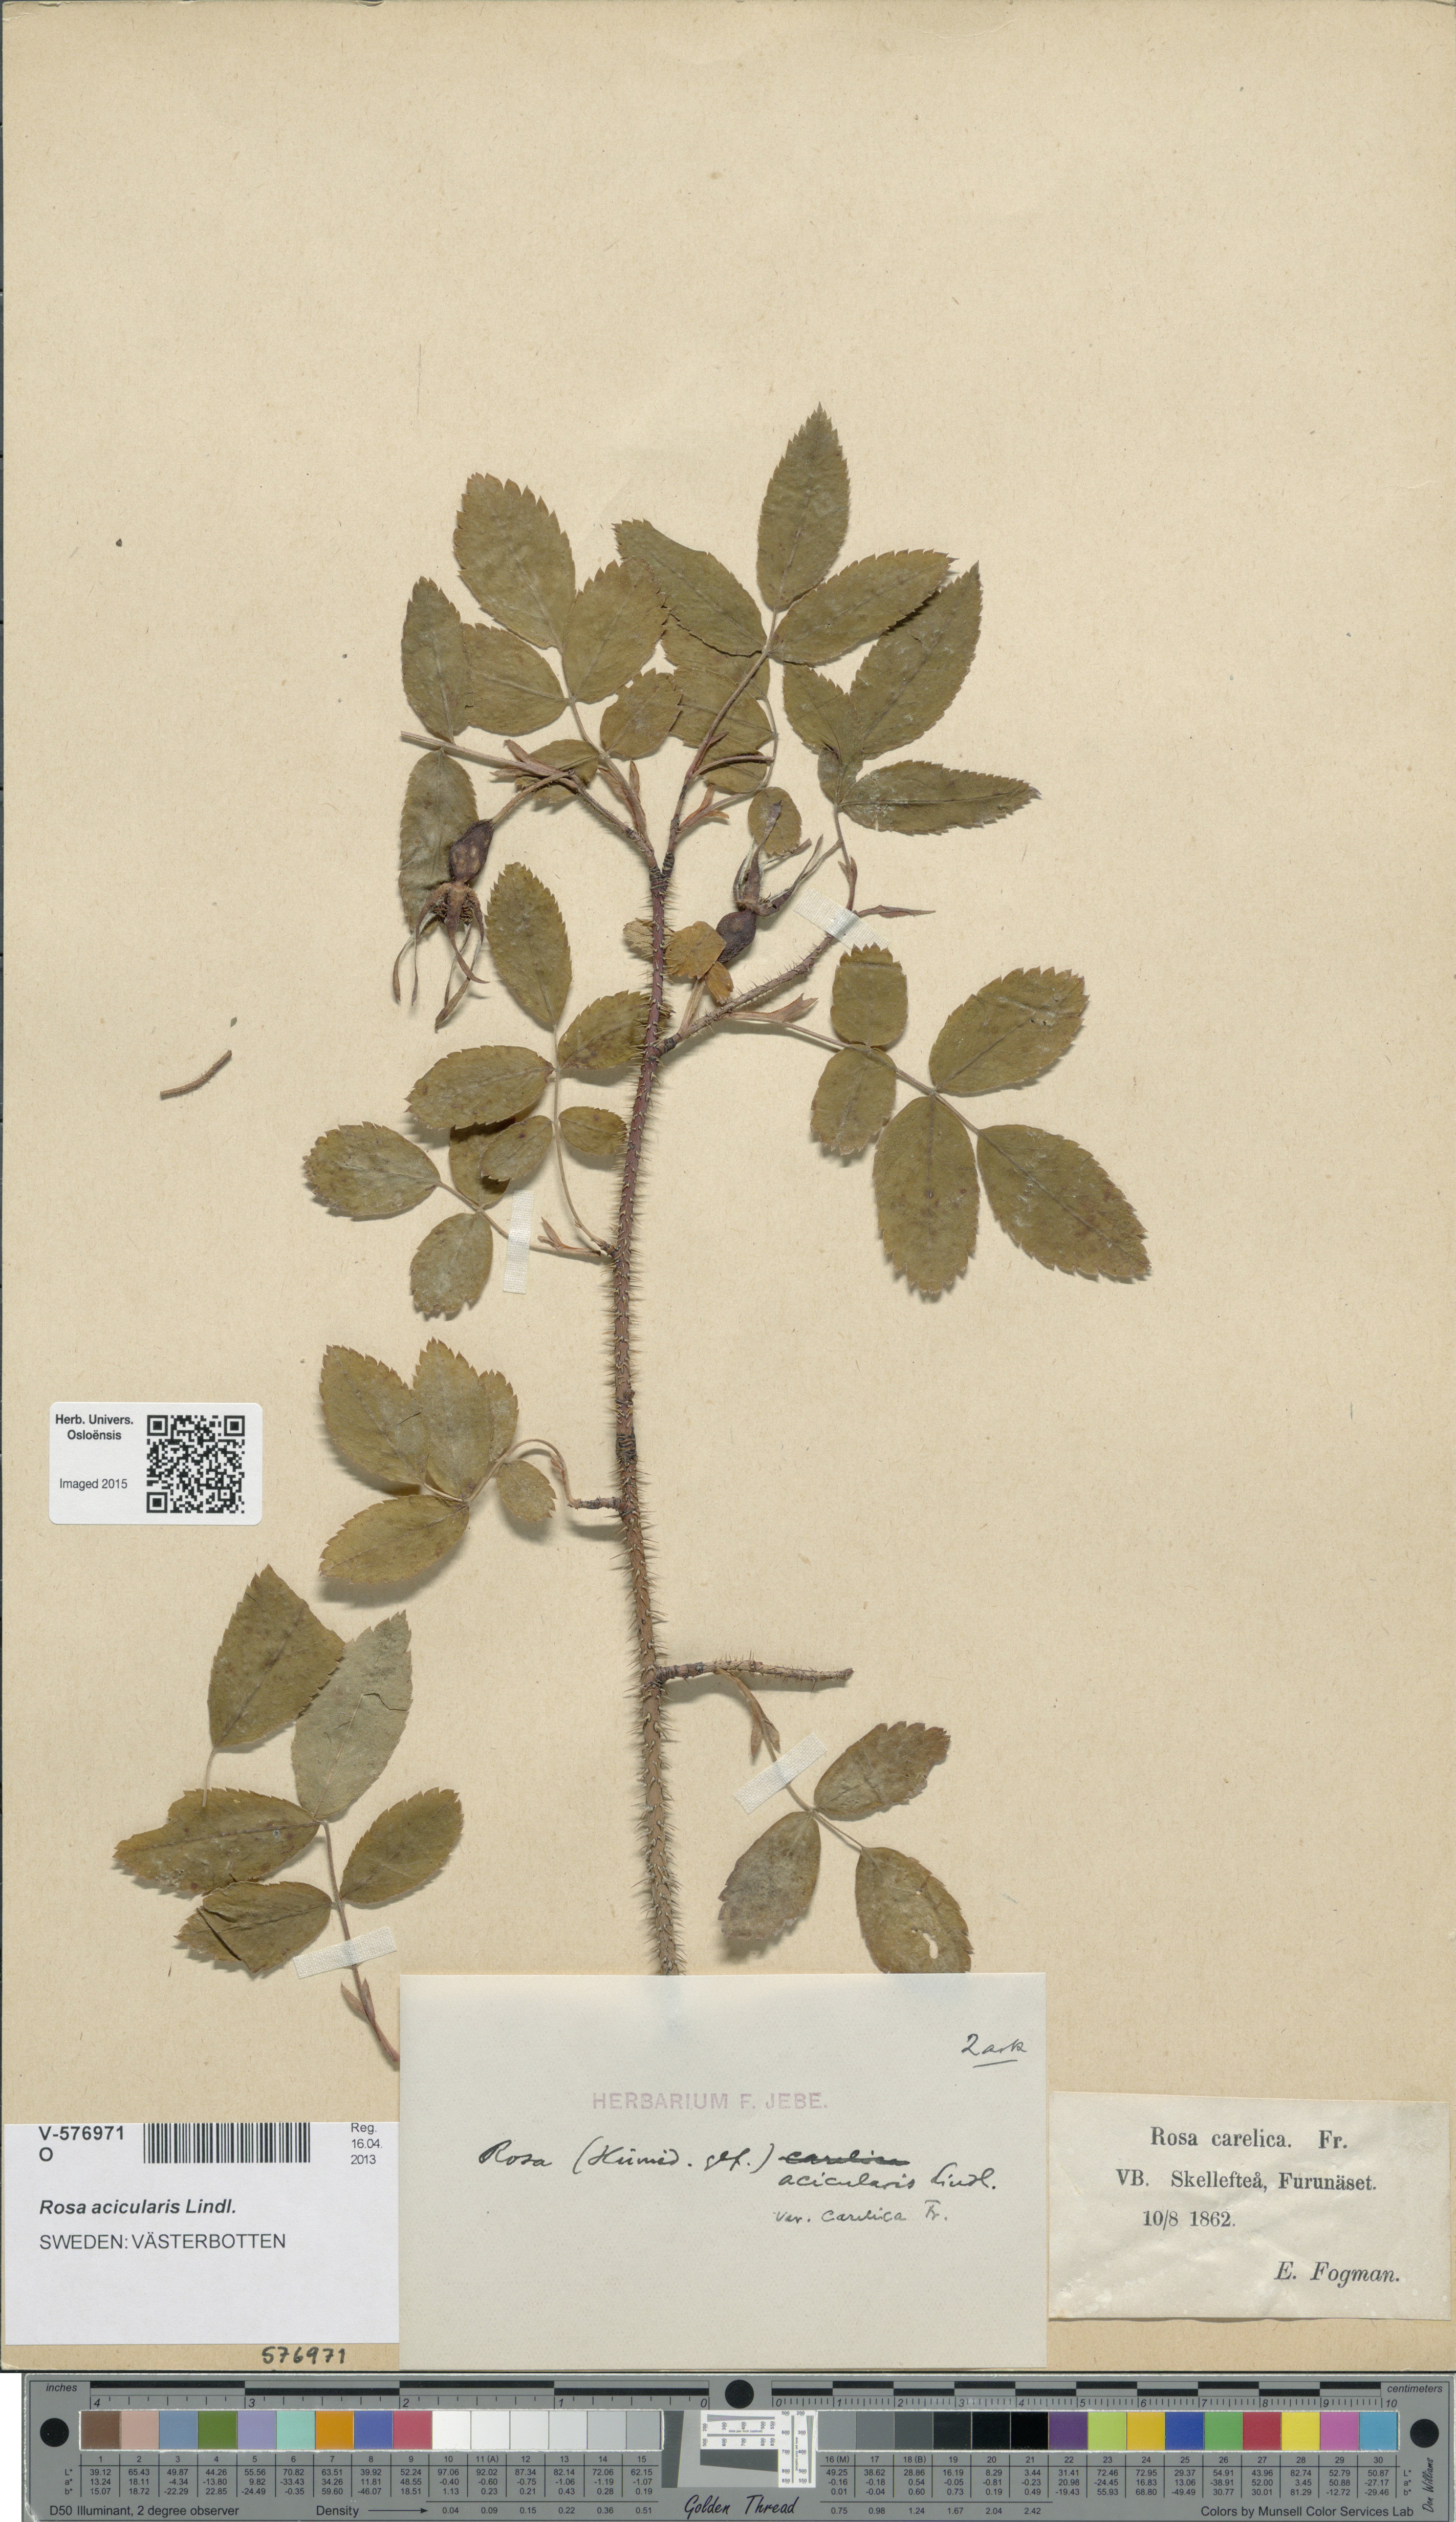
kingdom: Plantae
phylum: Tracheophyta
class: Magnoliopsida
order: Rosales
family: Rosaceae
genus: Rosa
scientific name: Rosa acicularis
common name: Prickly rose
